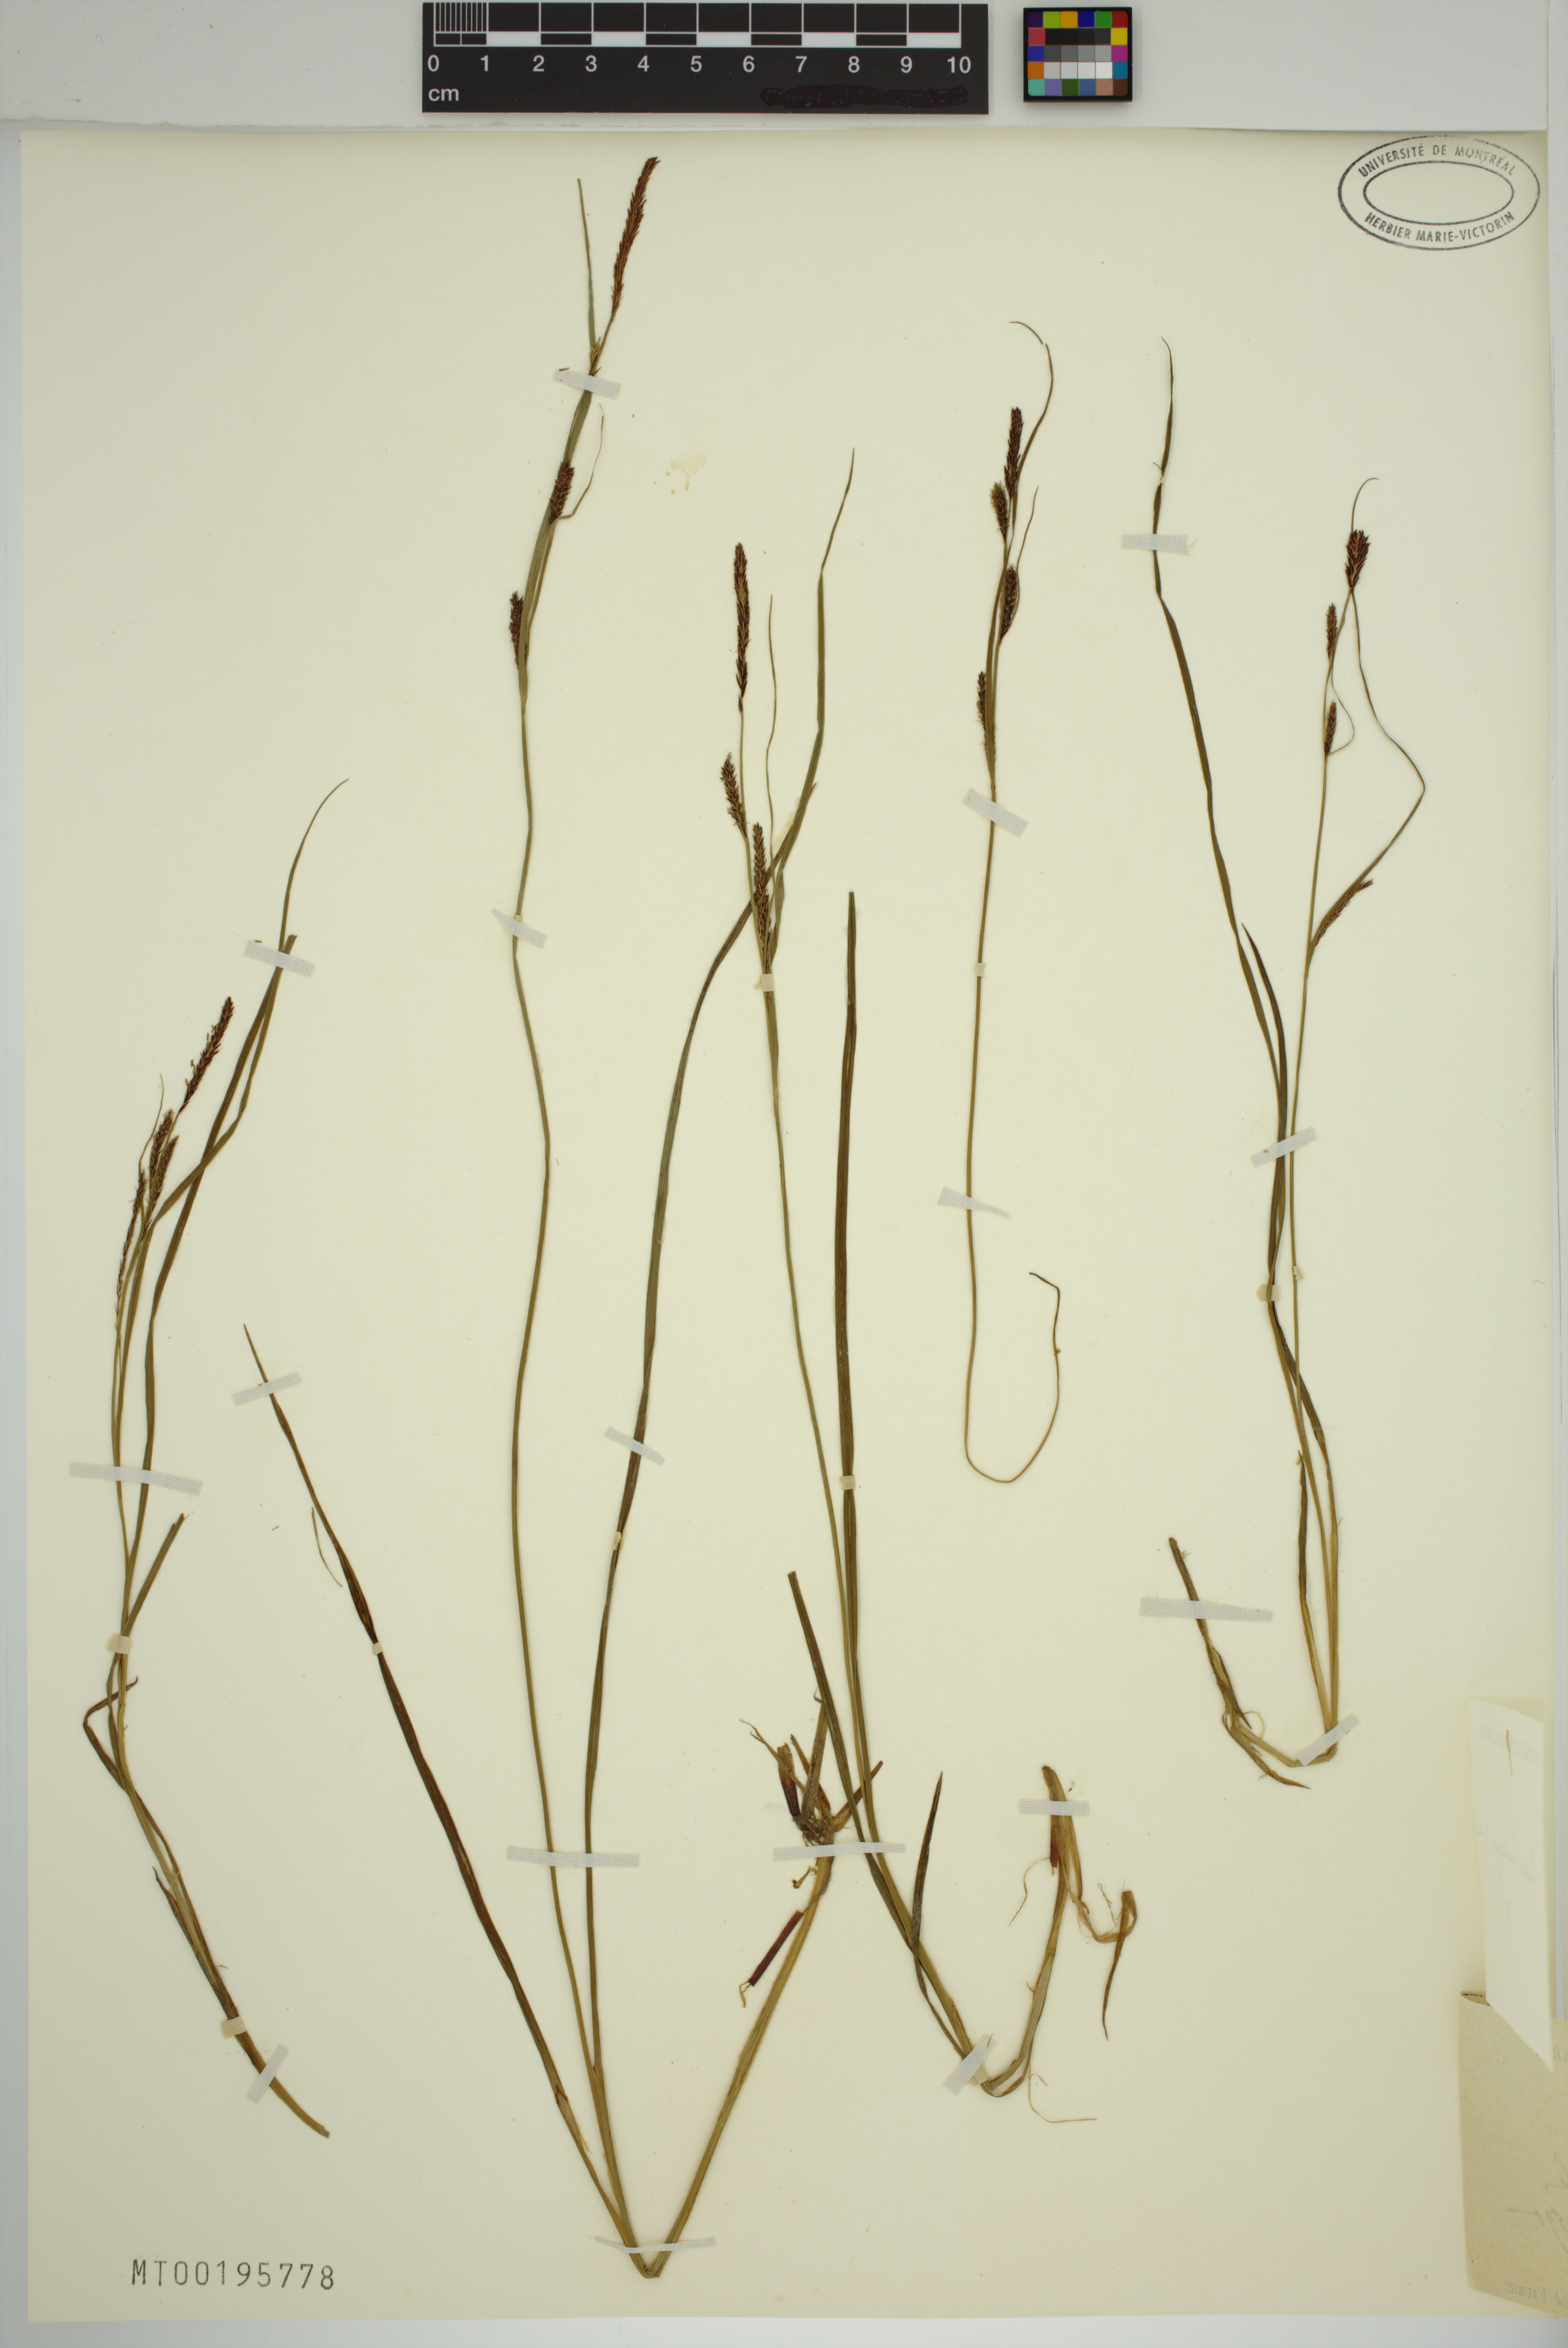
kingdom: Plantae
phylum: Tracheophyta
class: Liliopsida
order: Poales
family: Cyperaceae
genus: Carex
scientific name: Carex thunbergii
